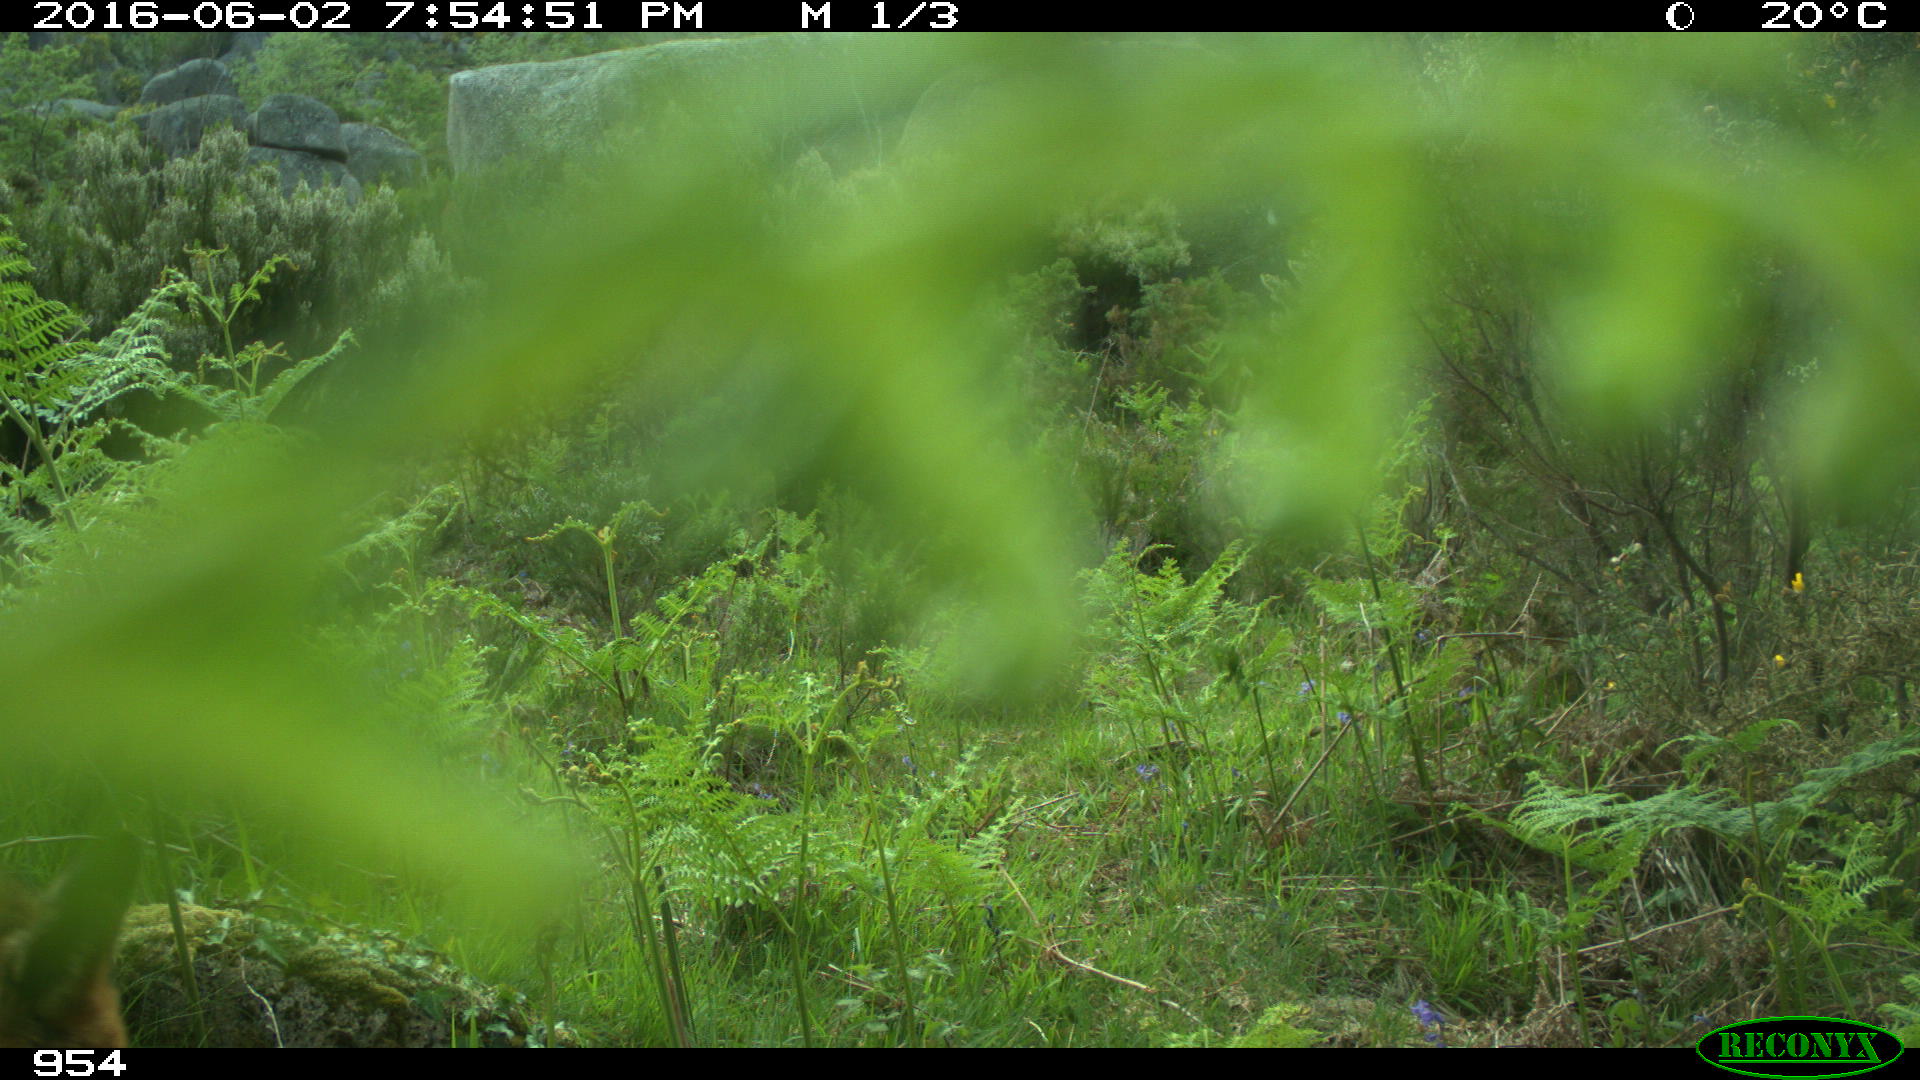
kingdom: Animalia
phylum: Chordata
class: Mammalia
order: Carnivora
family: Canidae
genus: Vulpes
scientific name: Vulpes vulpes
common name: Red fox
